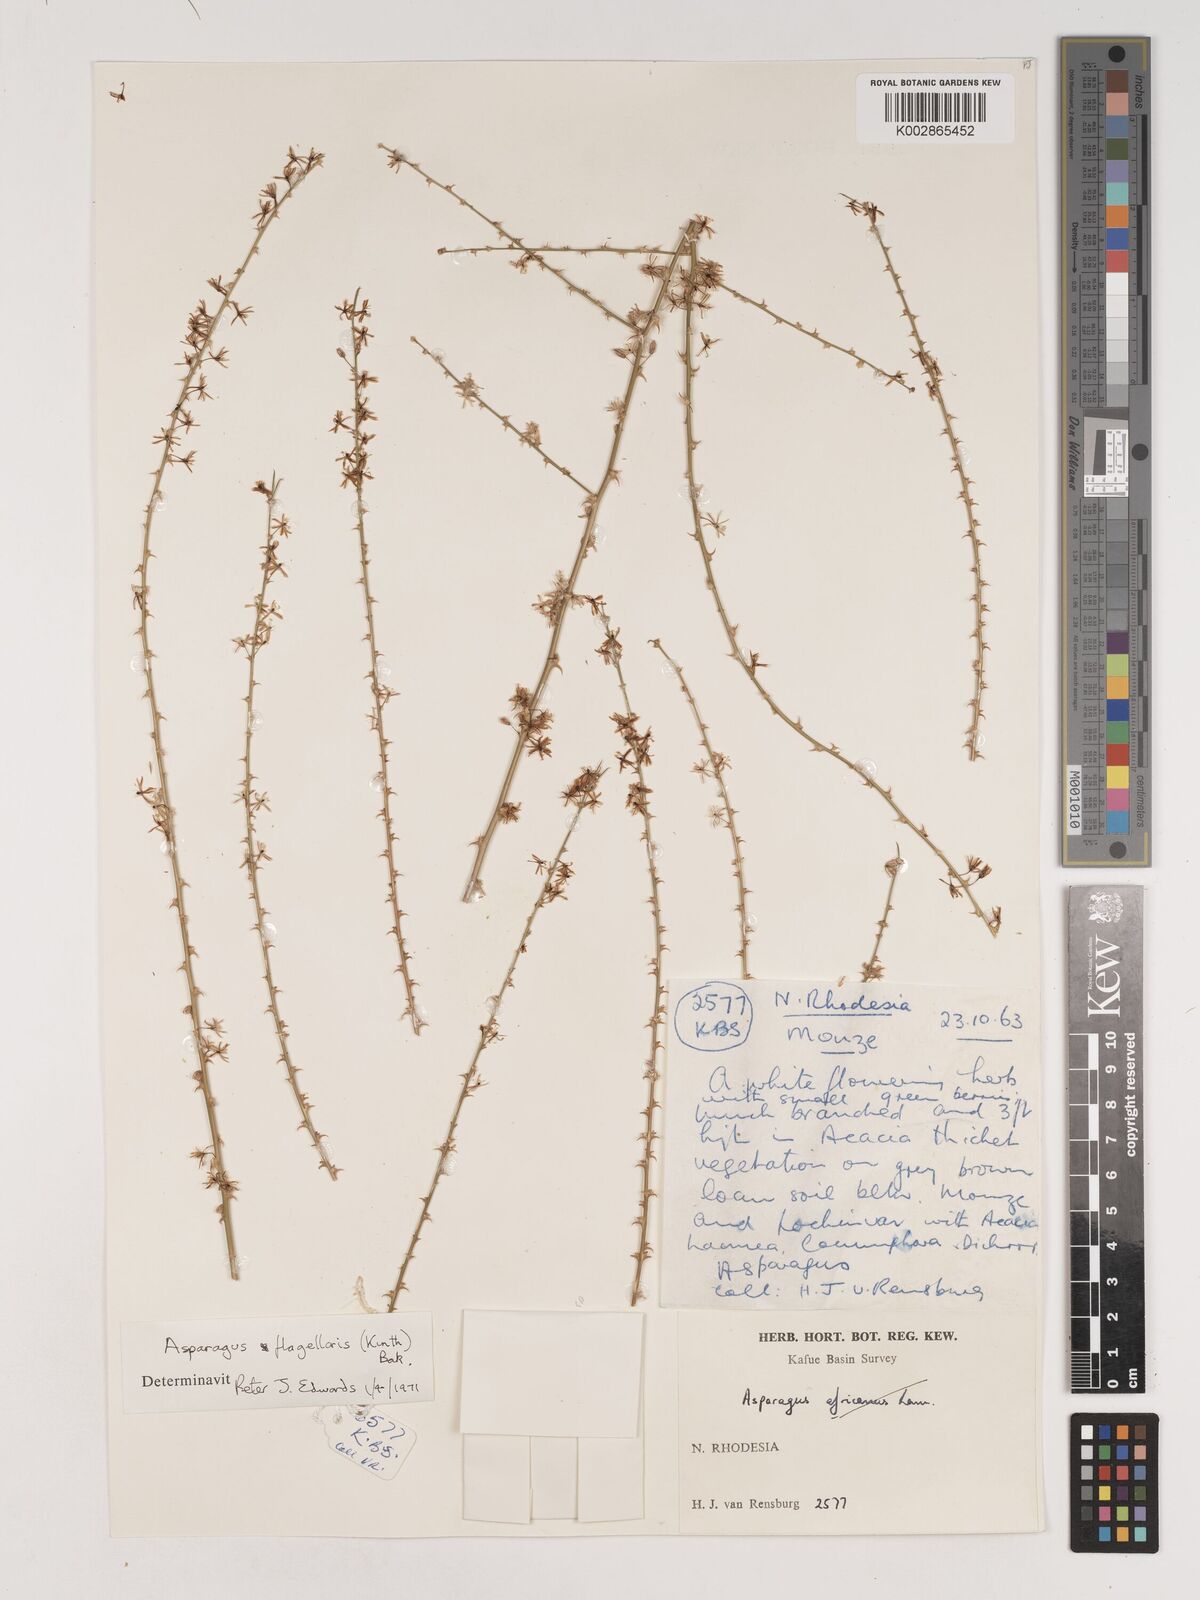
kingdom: Plantae
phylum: Tracheophyta
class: Liliopsida
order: Asparagales
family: Asparagaceae
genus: Asparagus
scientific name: Asparagus flagellaris
